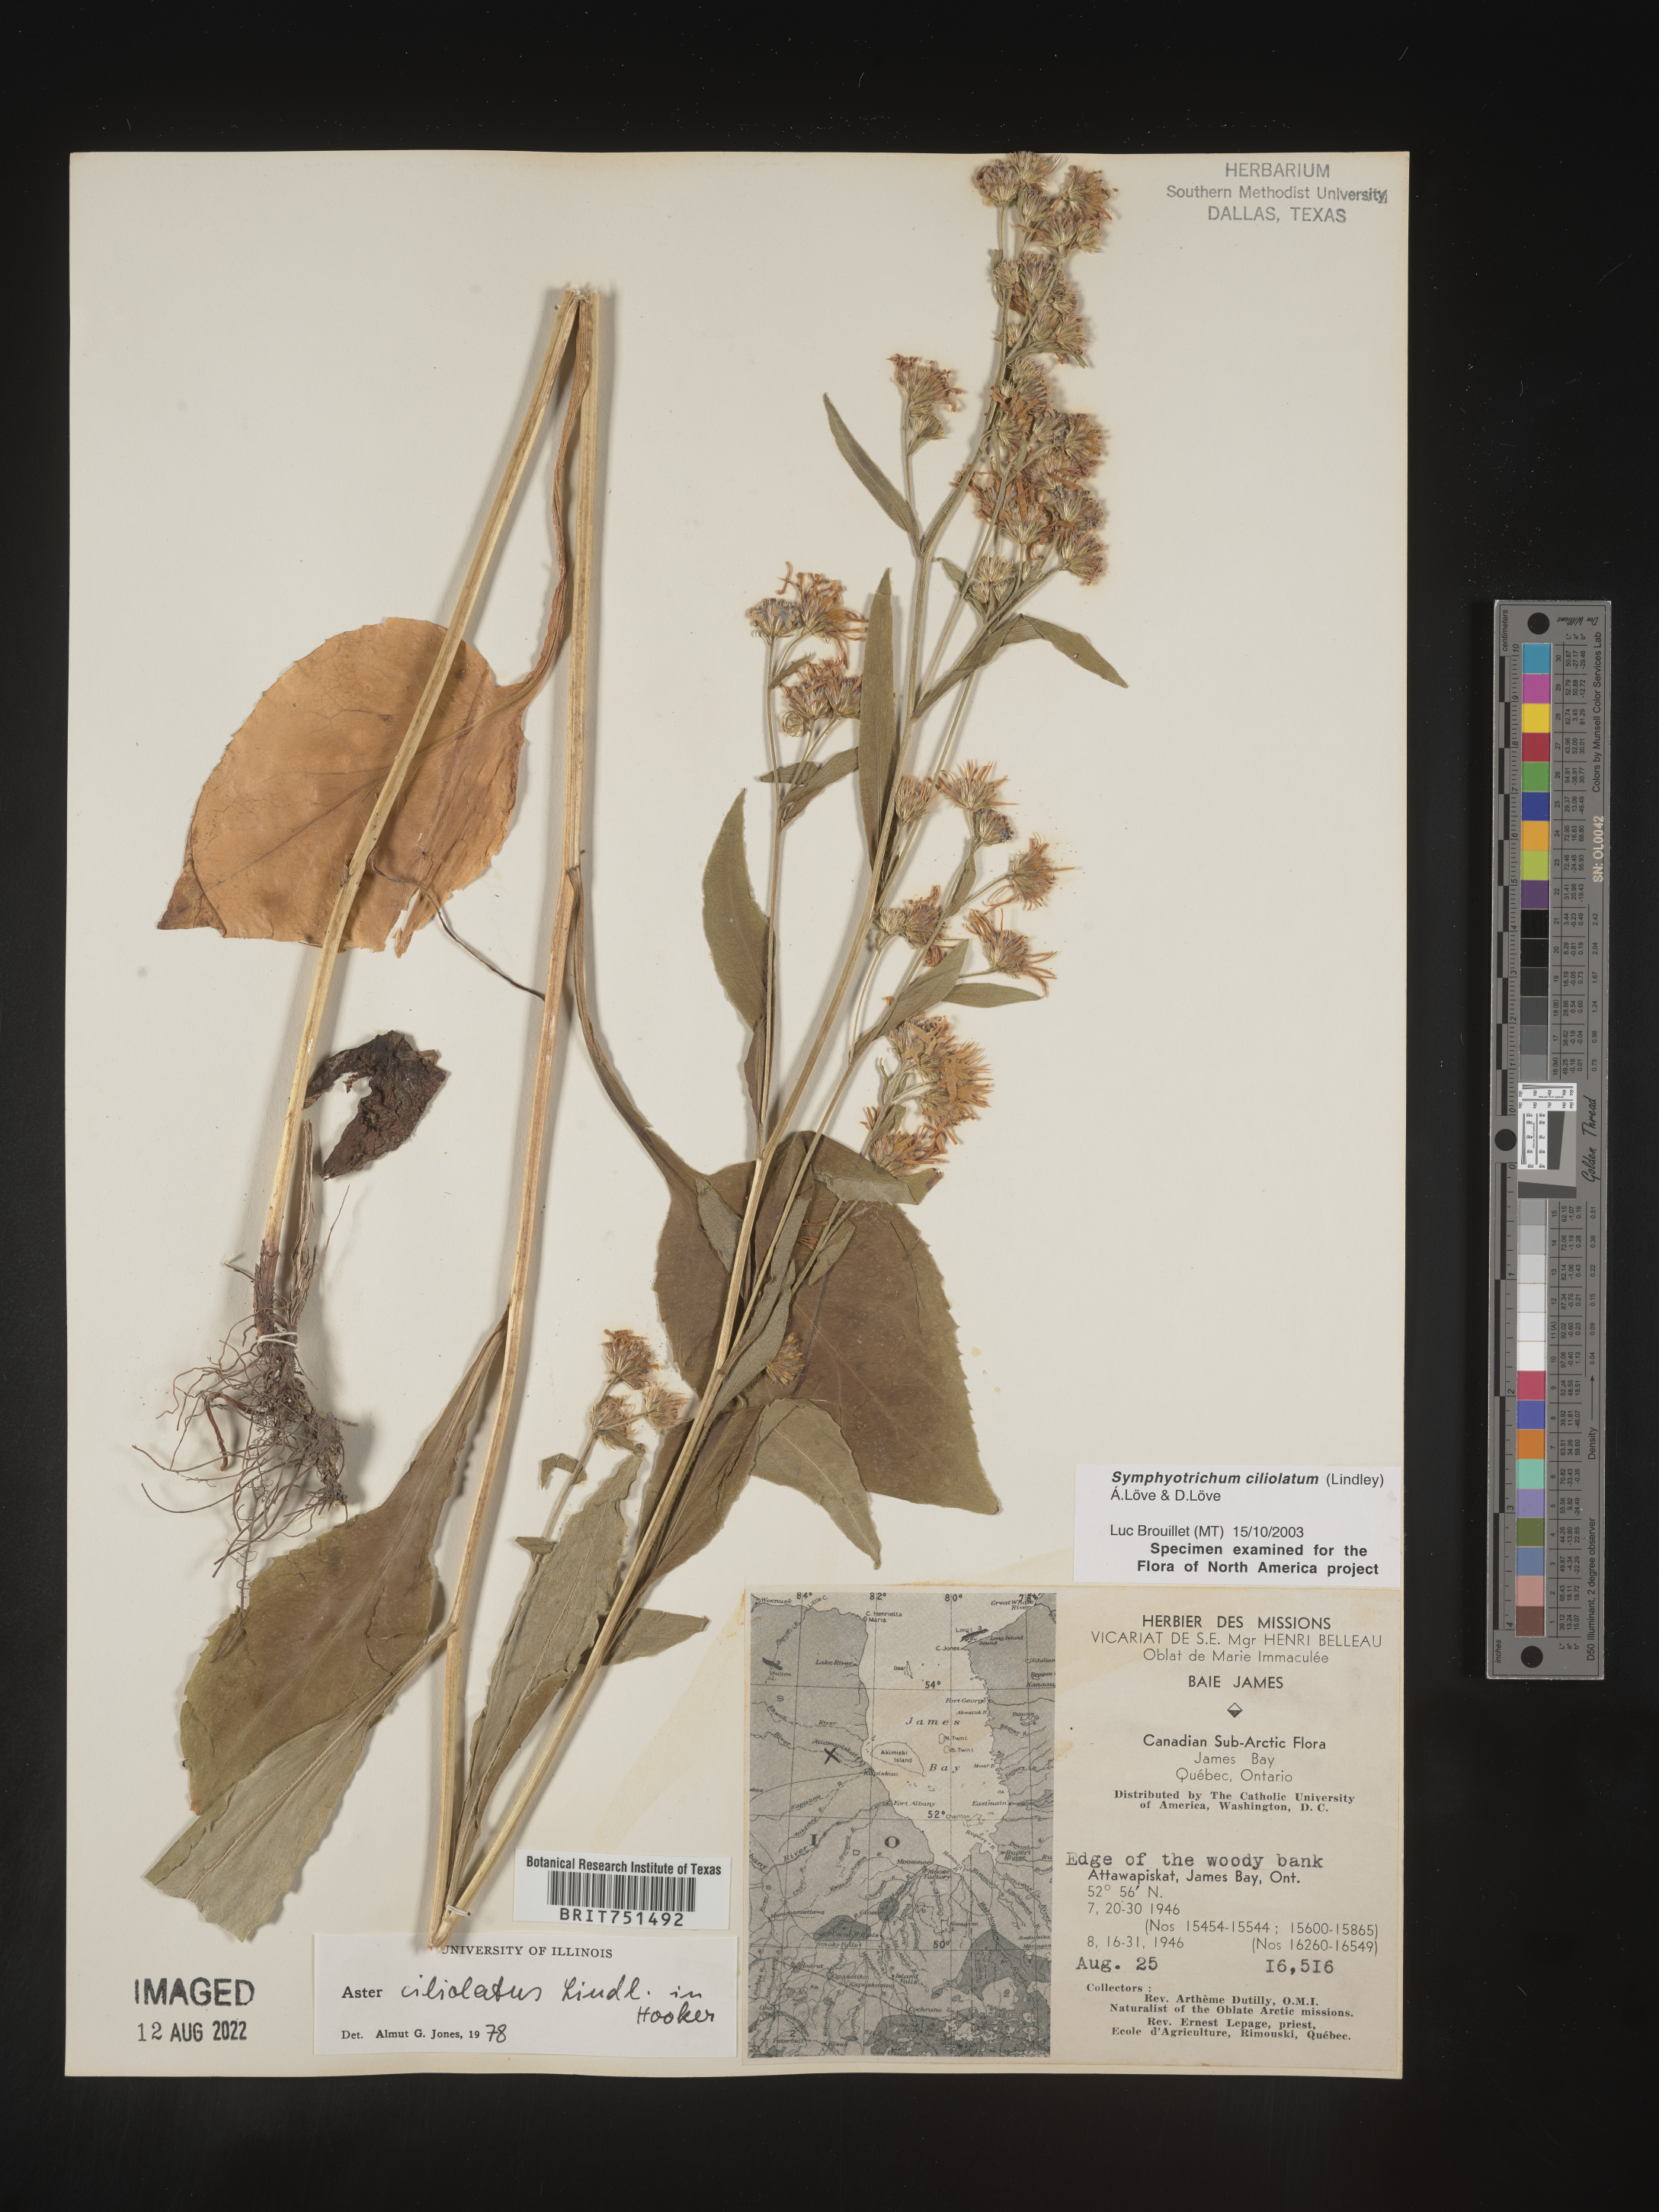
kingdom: Plantae
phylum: Tracheophyta
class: Magnoliopsida
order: Asterales
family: Asteraceae
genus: Symphyotrichum
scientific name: Symphyotrichum ciliolatum
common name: Fringed blue aster
